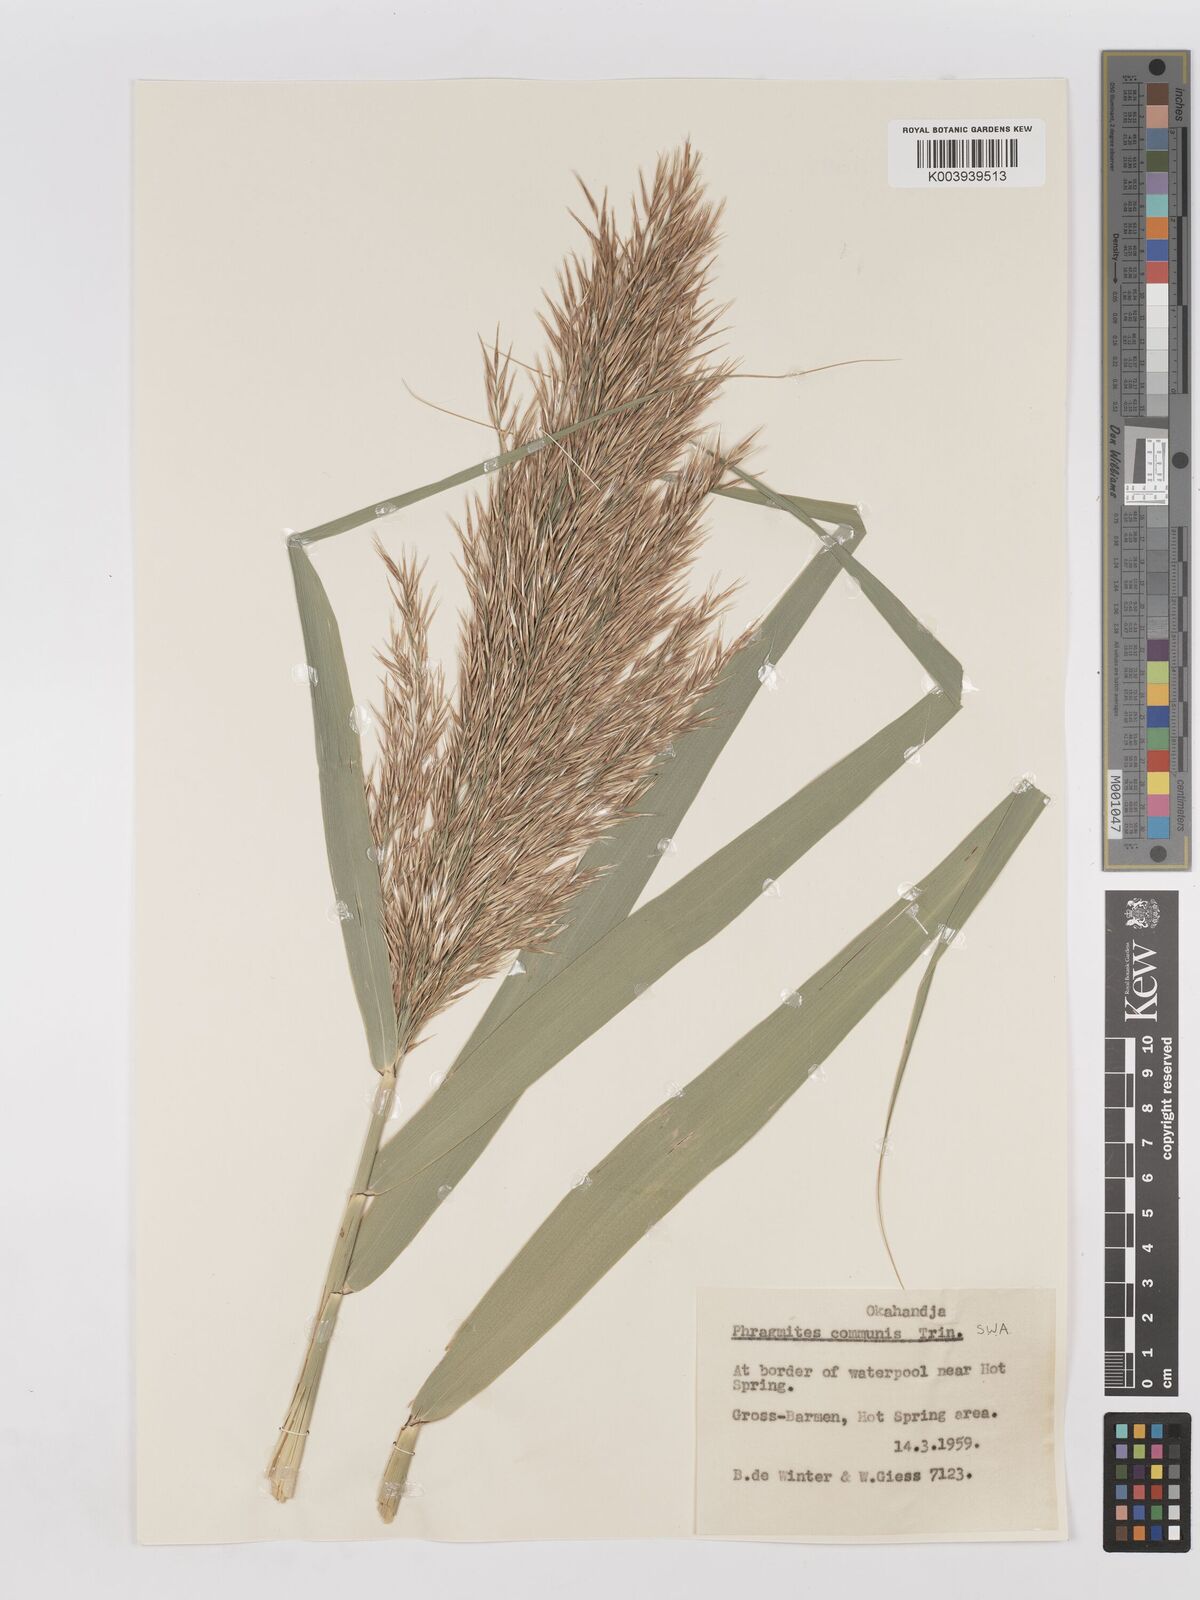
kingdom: Plantae
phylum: Tracheophyta
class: Liliopsida
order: Poales
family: Poaceae
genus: Phragmites
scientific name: Phragmites australis
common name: Common reed
